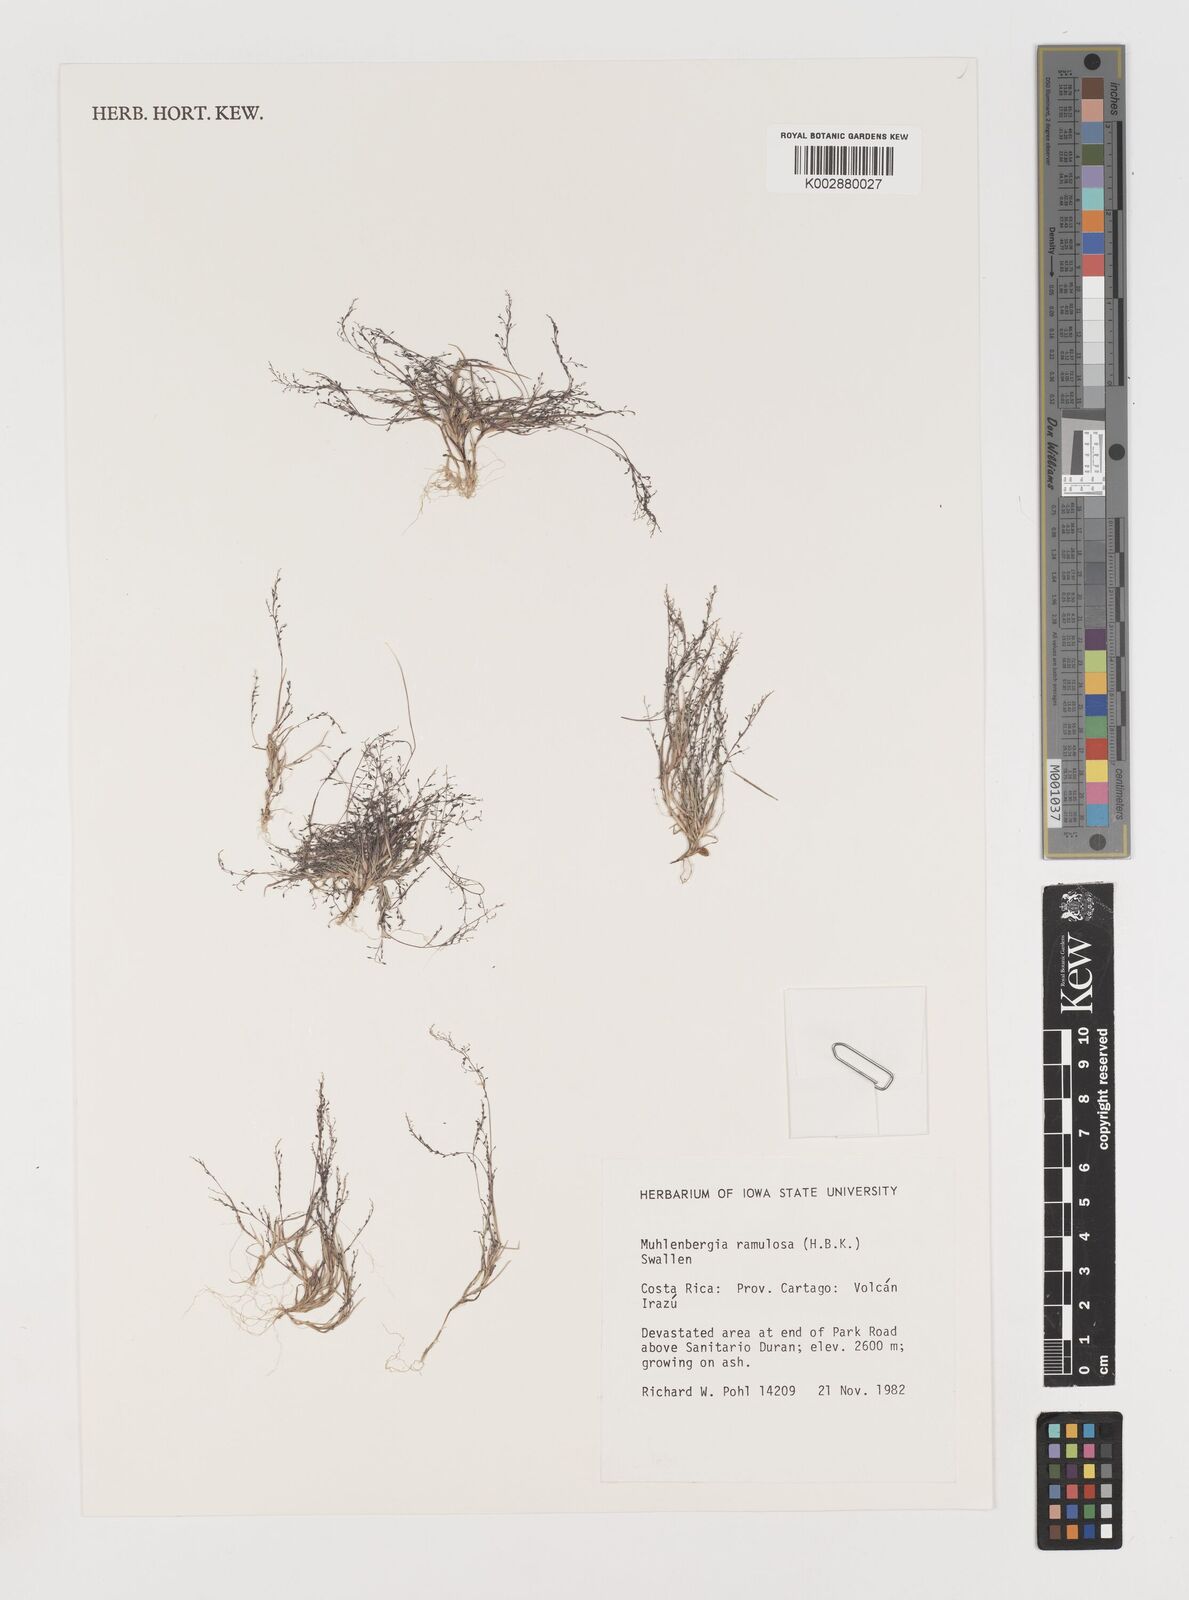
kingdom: Plantae
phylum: Tracheophyta
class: Liliopsida
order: Poales
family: Poaceae
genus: Muhlenbergia
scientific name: Muhlenbergia ramulosa
